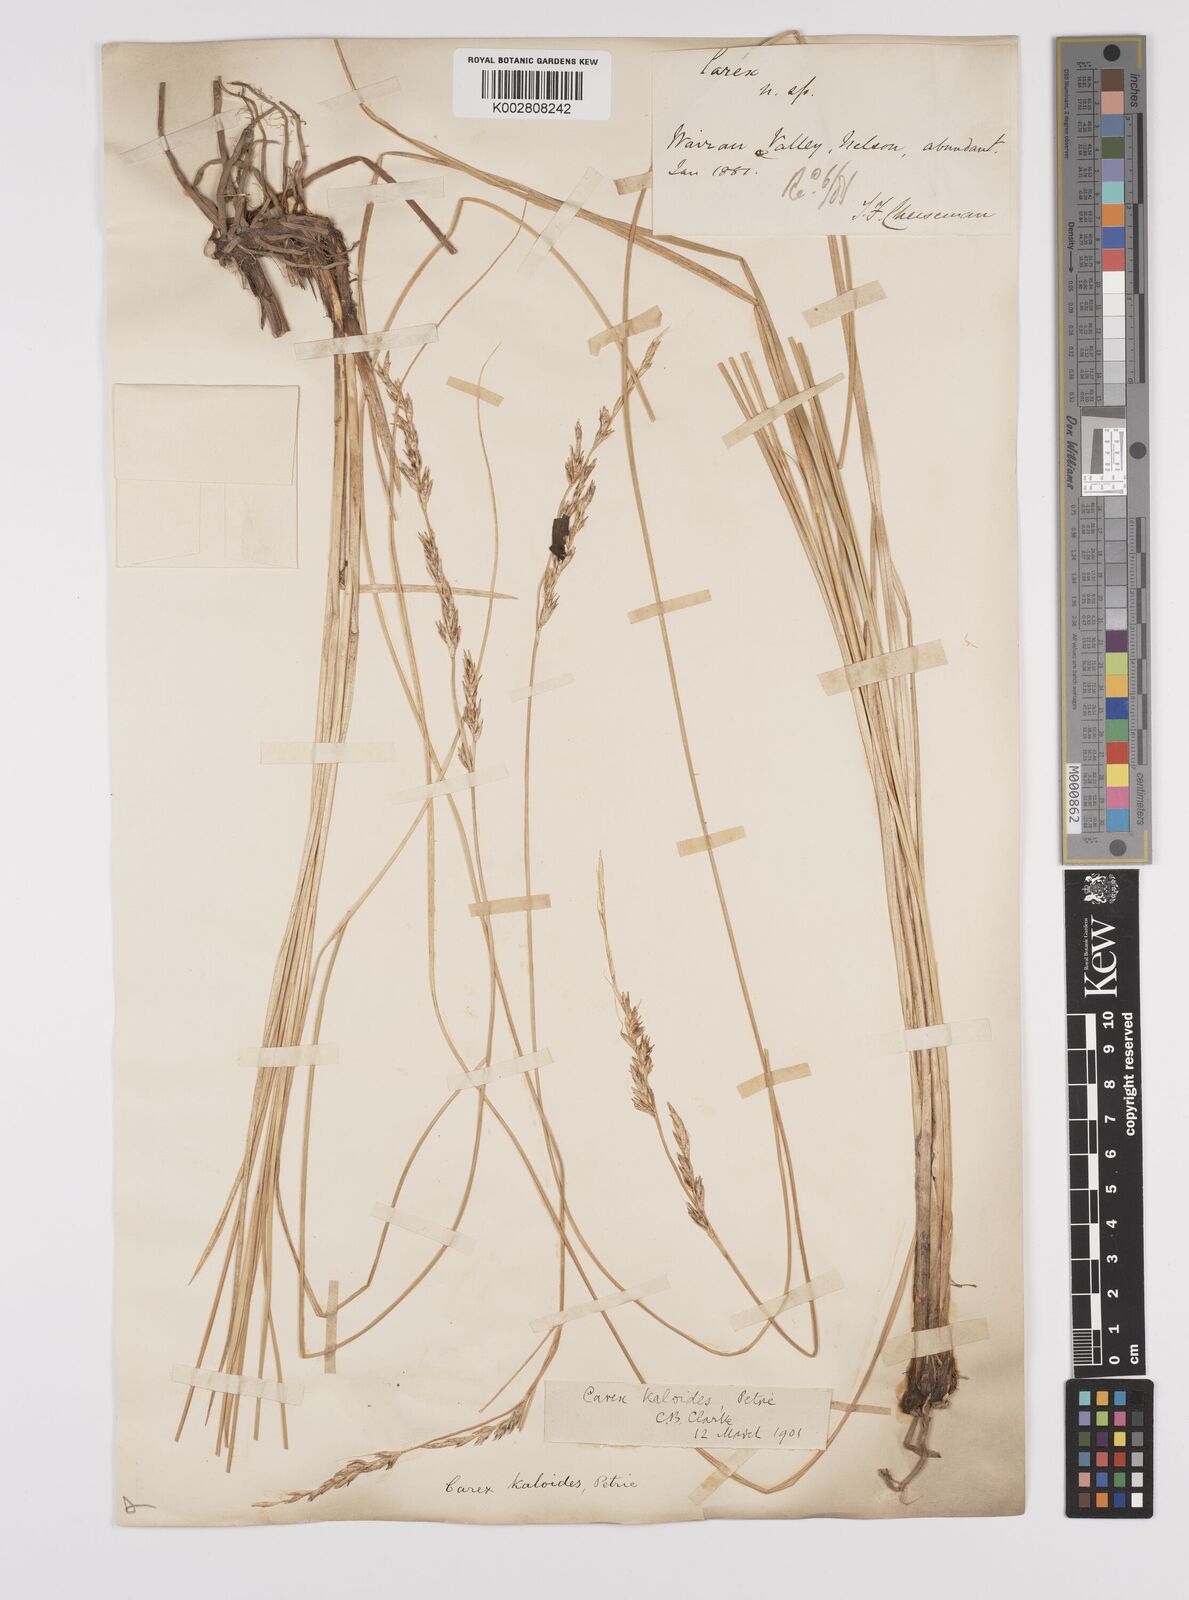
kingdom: Plantae
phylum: Tracheophyta
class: Liliopsida
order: Poales
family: Cyperaceae
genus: Carex
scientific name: Carex kaloides
